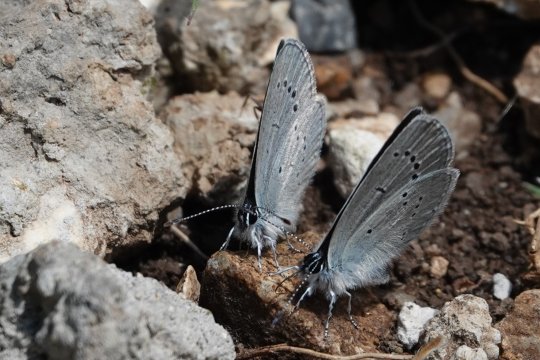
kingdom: Animalia
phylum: Arthropoda
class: Insecta
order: Lepidoptera
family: Lycaenidae
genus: Cupido
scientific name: Cupido minimus
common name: Small Blue
